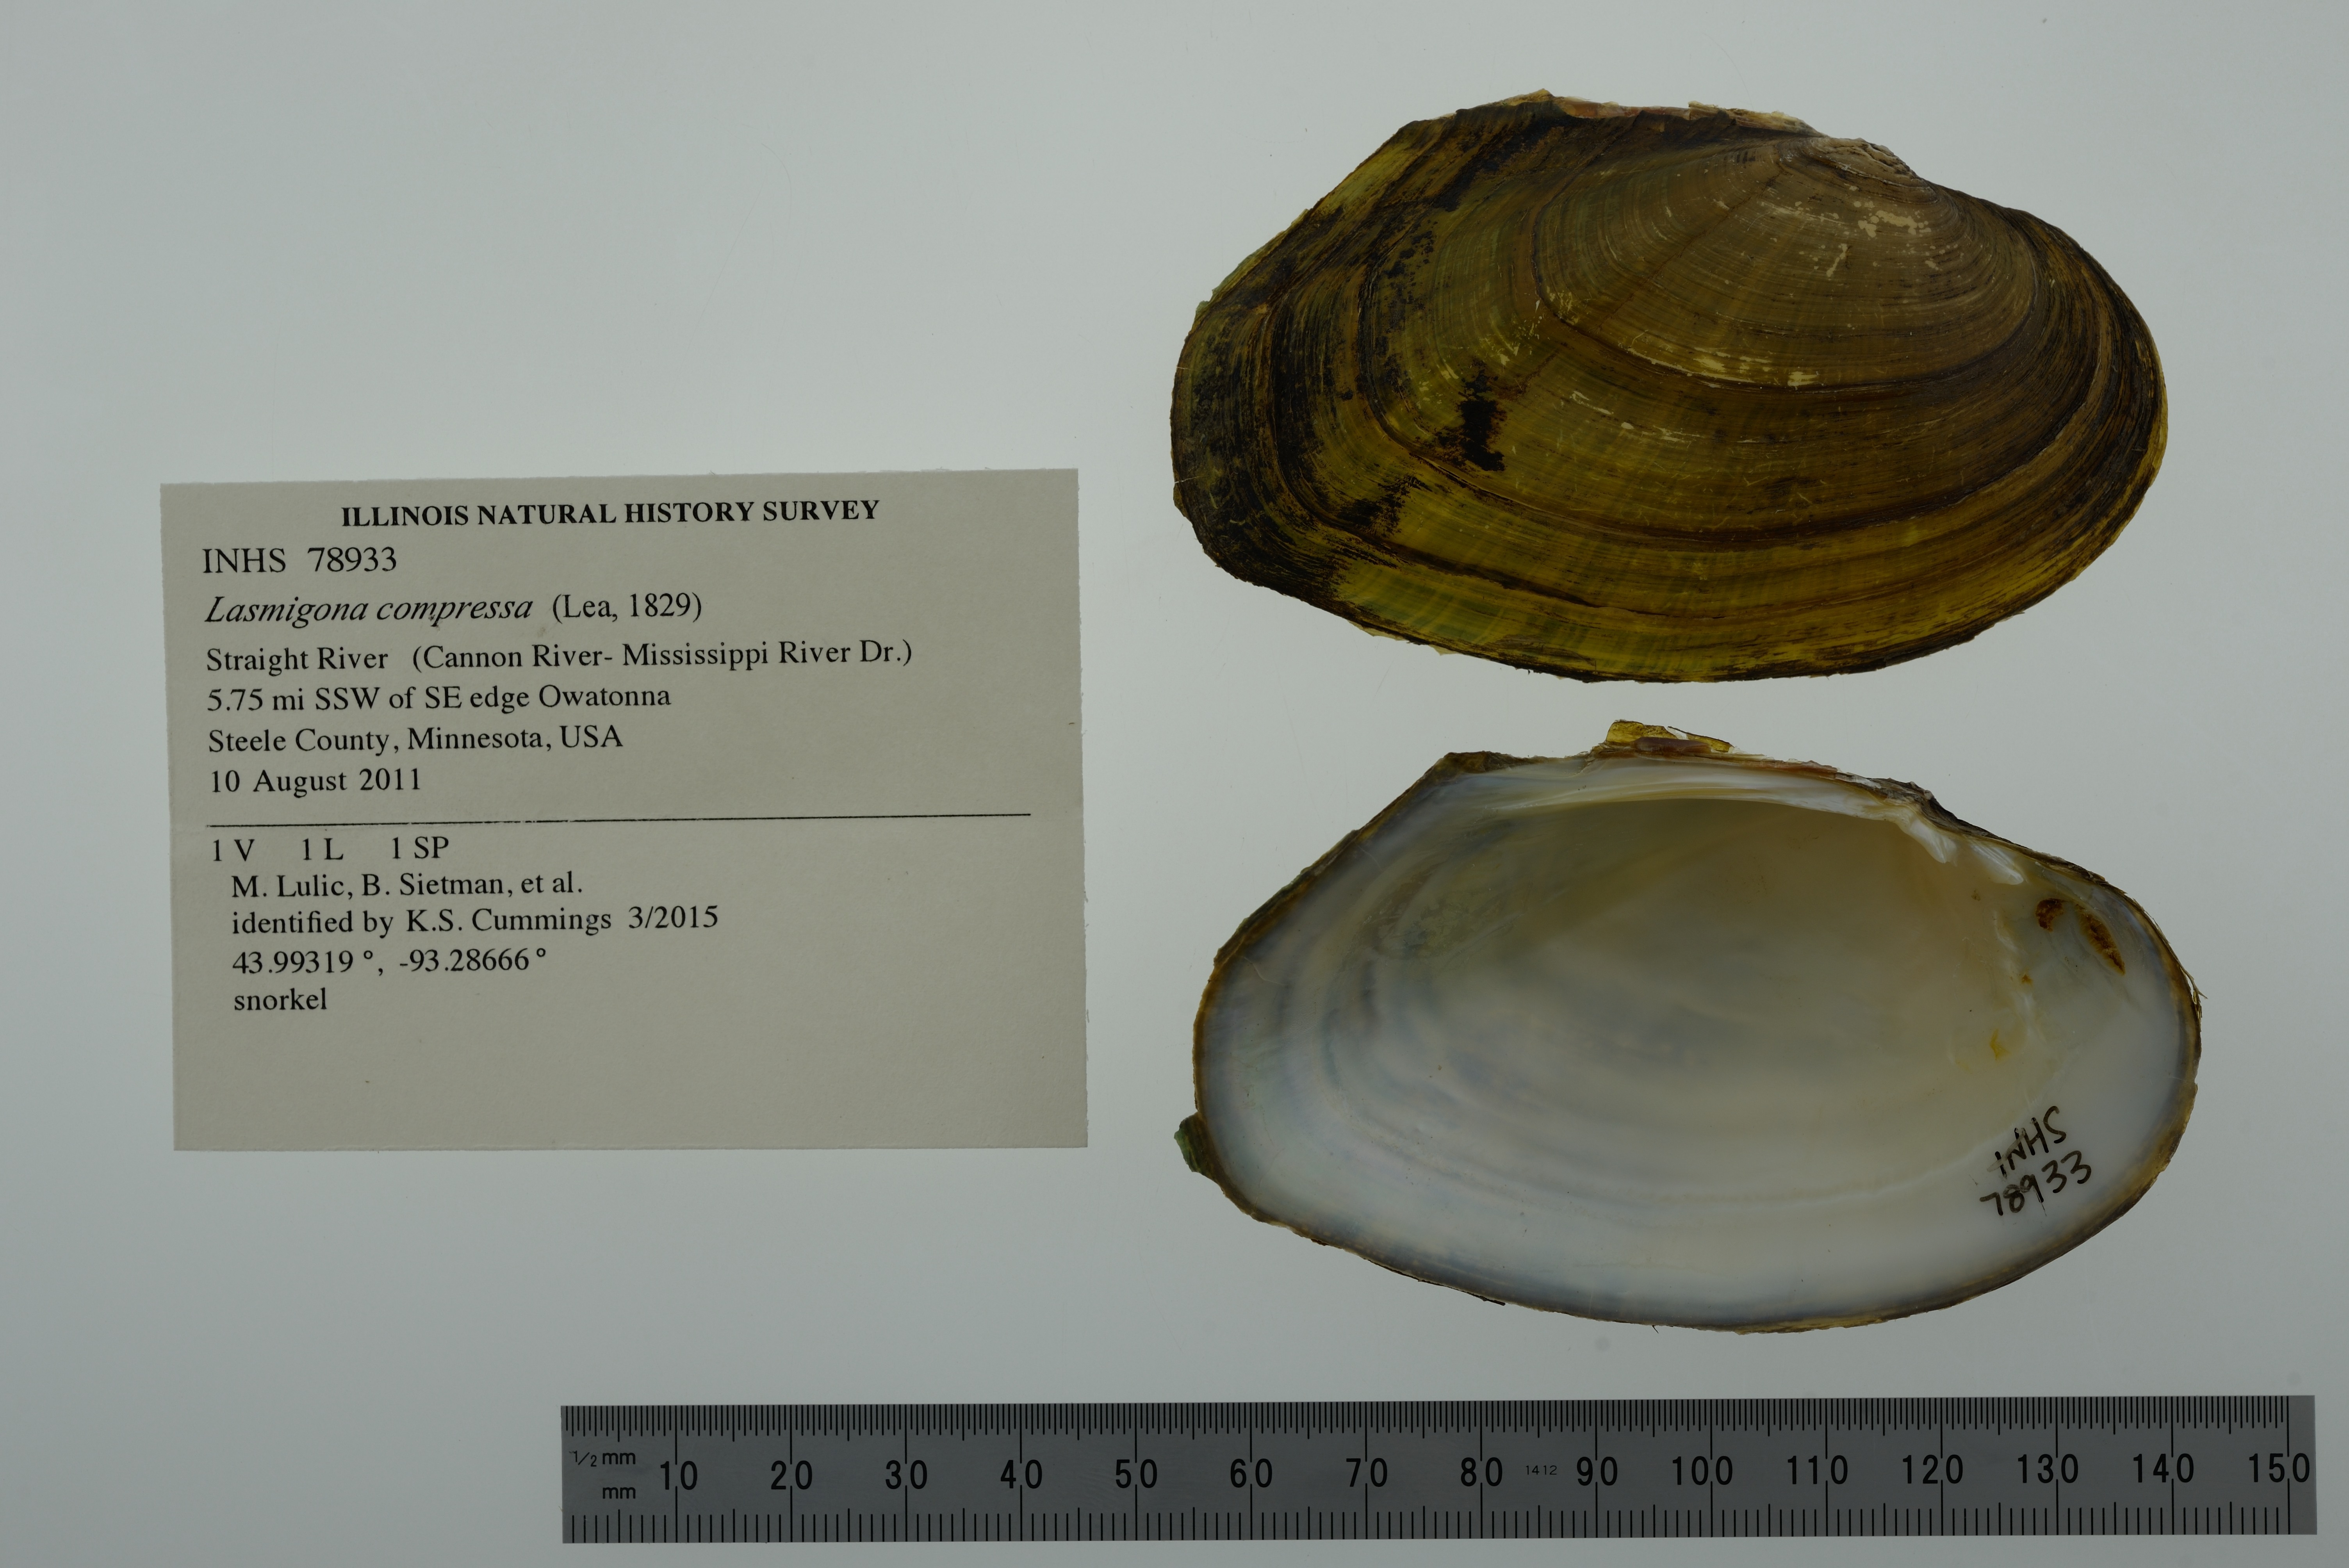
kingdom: Animalia
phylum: Mollusca
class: Bivalvia
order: Unionida
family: Unionidae
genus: Lasmigona
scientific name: Lasmigona compressa
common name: Creek heelsplitter
